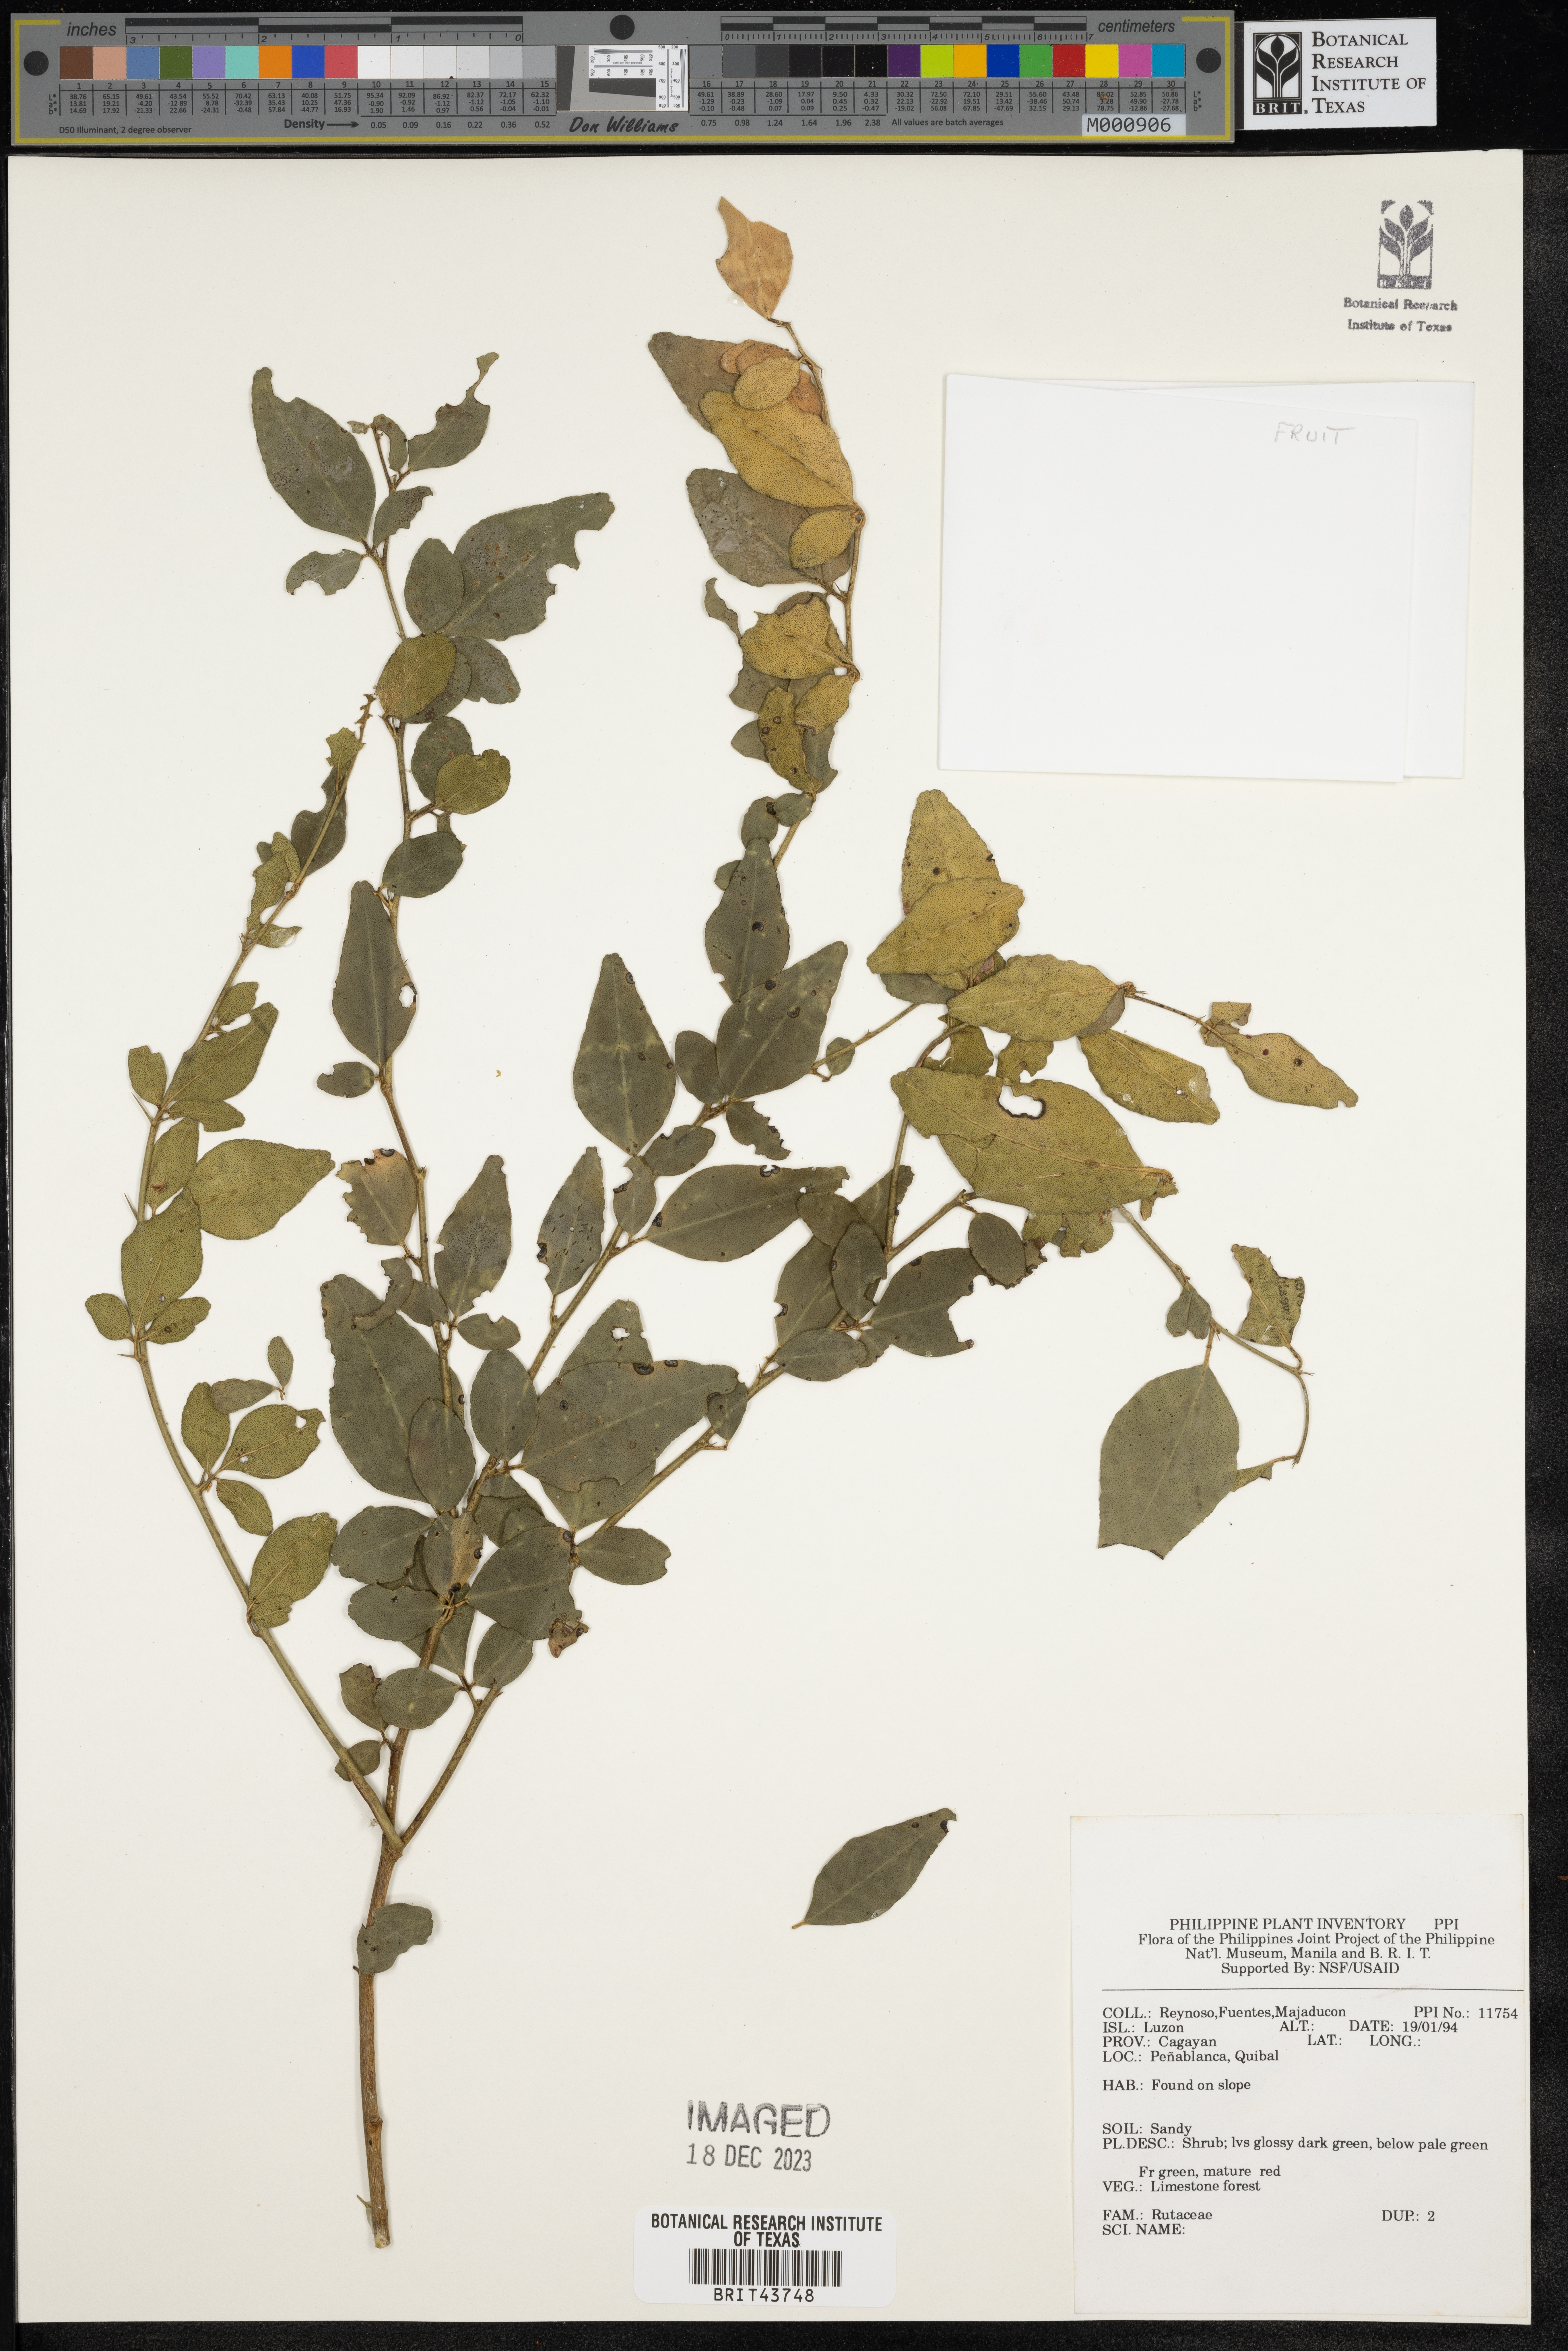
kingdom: Plantae
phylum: Tracheophyta
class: Magnoliopsida
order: Sapindales
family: Rutaceae
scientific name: Rutaceae
